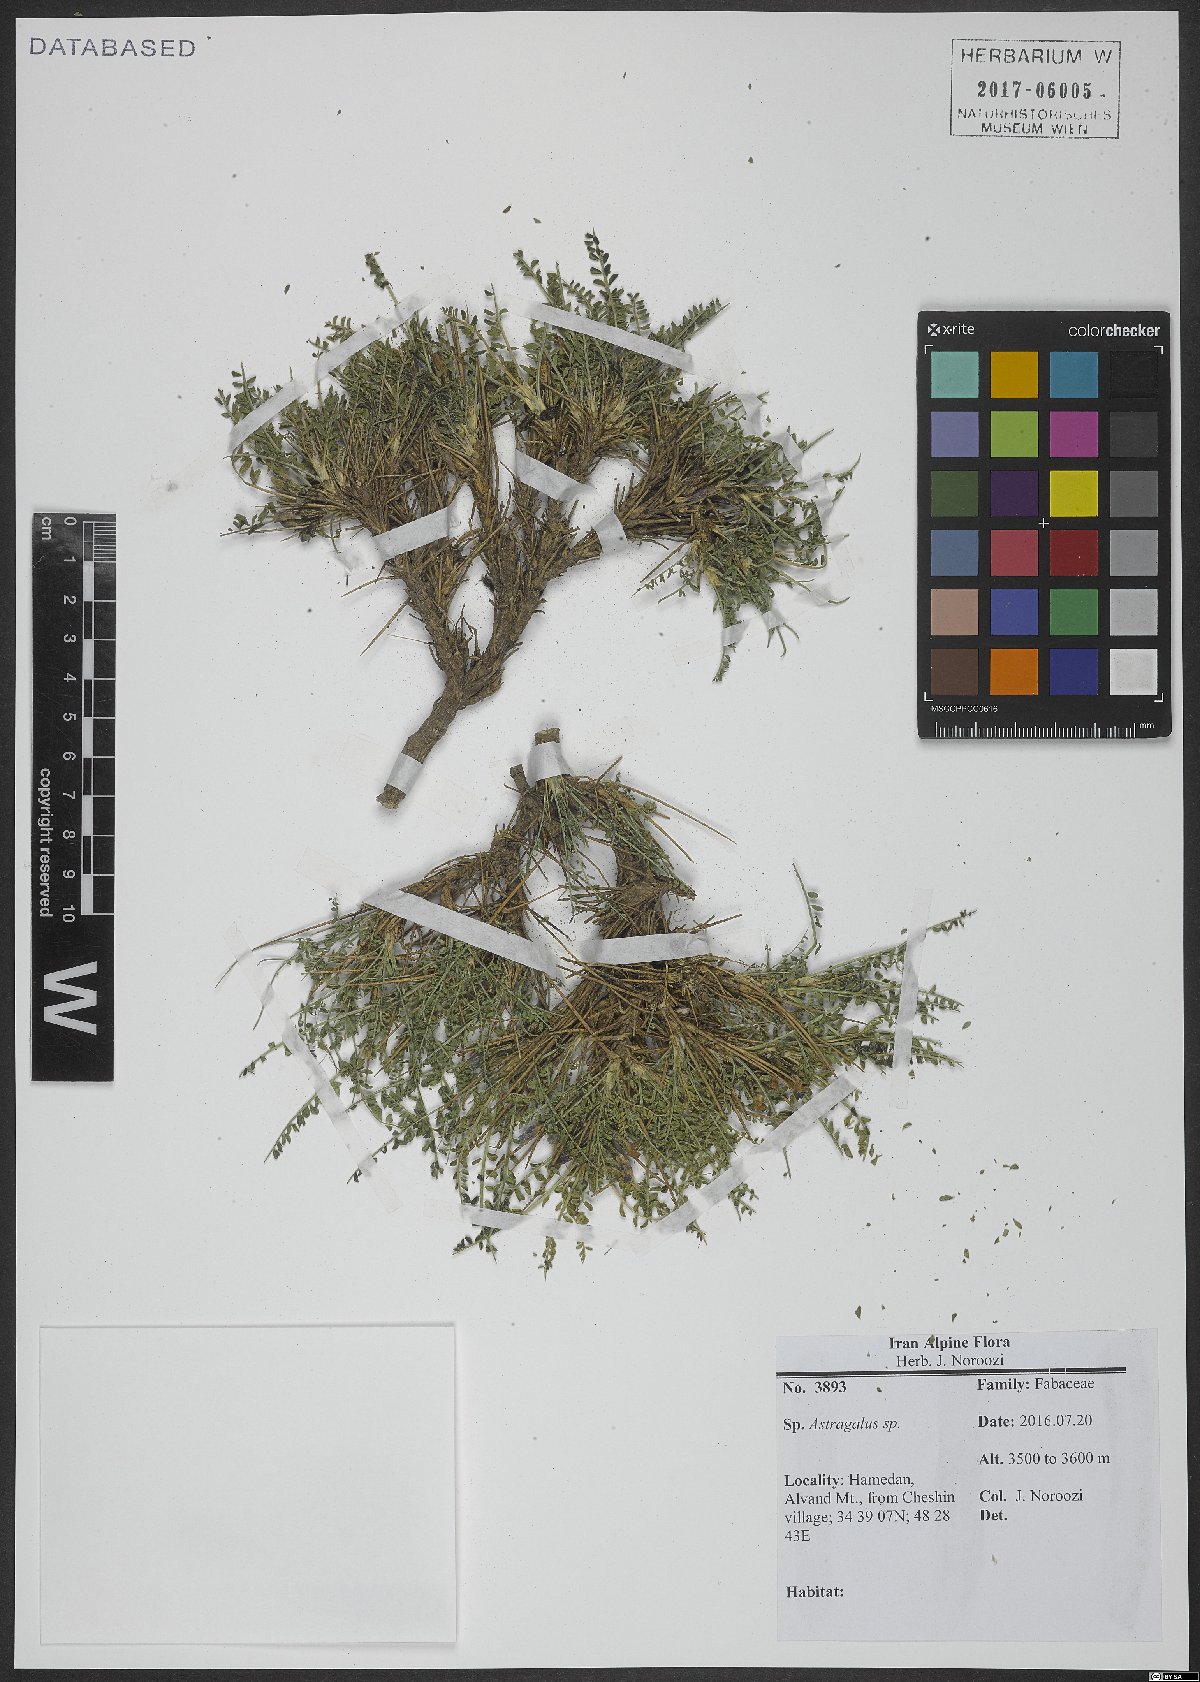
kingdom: Plantae
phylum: Tracheophyta
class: Magnoliopsida
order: Fabales
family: Fabaceae
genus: Astragalus
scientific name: Astragalus
